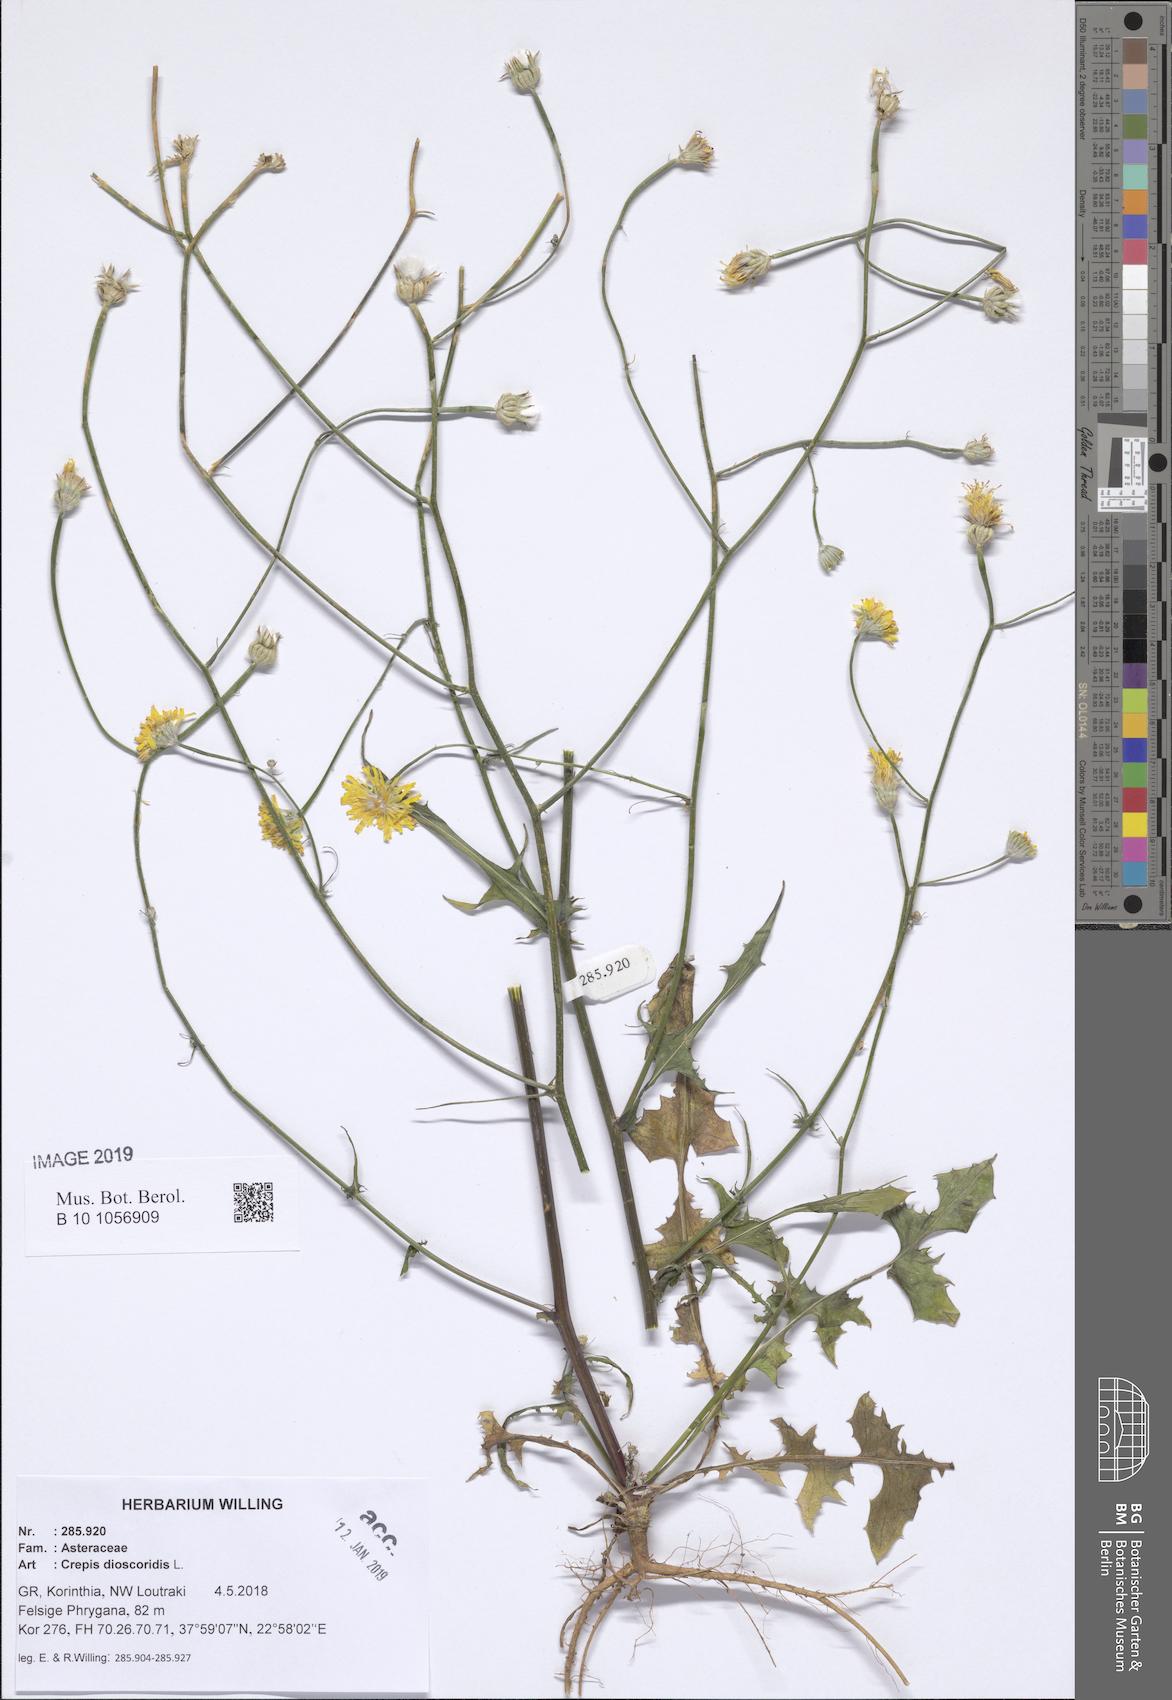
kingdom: Plantae
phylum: Tracheophyta
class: Magnoliopsida
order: Asterales
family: Asteraceae
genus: Crepis
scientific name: Crepis dioscoridis
